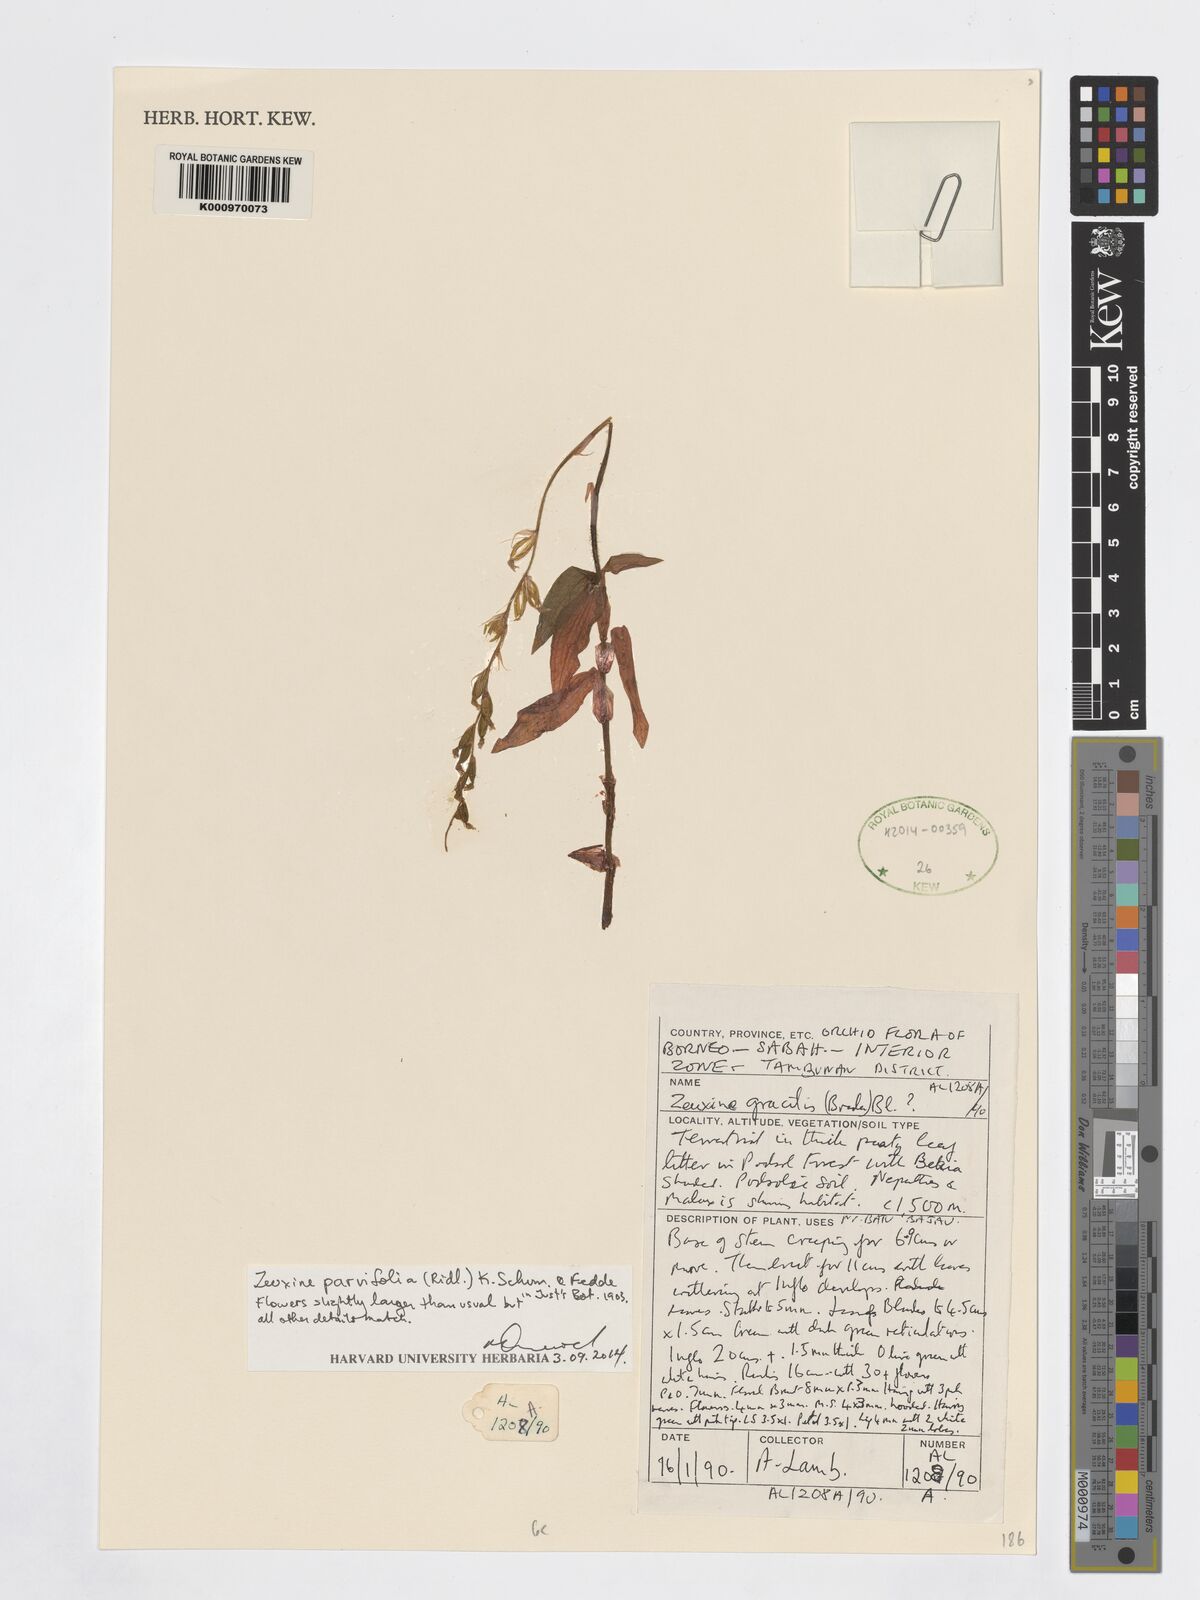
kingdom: Plantae
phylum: Tracheophyta
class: Liliopsida
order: Asparagales
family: Orchidaceae
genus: Zeuxine
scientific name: Zeuxine
